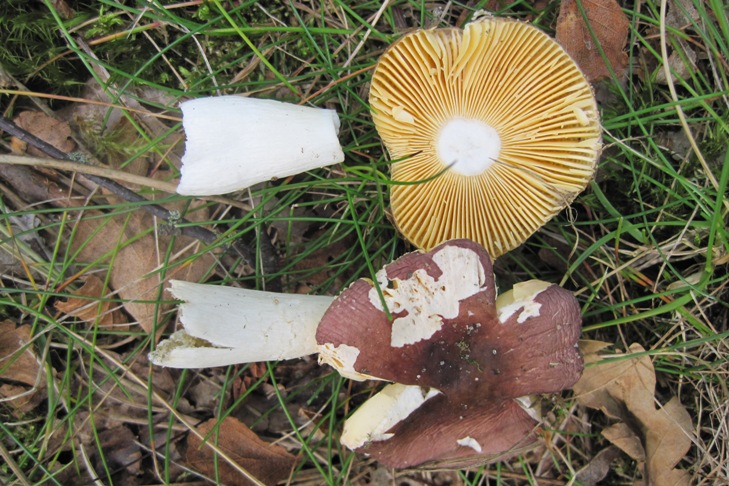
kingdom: Fungi
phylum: Basidiomycota
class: Agaricomycetes
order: Russulales
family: Russulaceae
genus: Russula
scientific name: Russula cessans
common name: fyrre-skørhat
